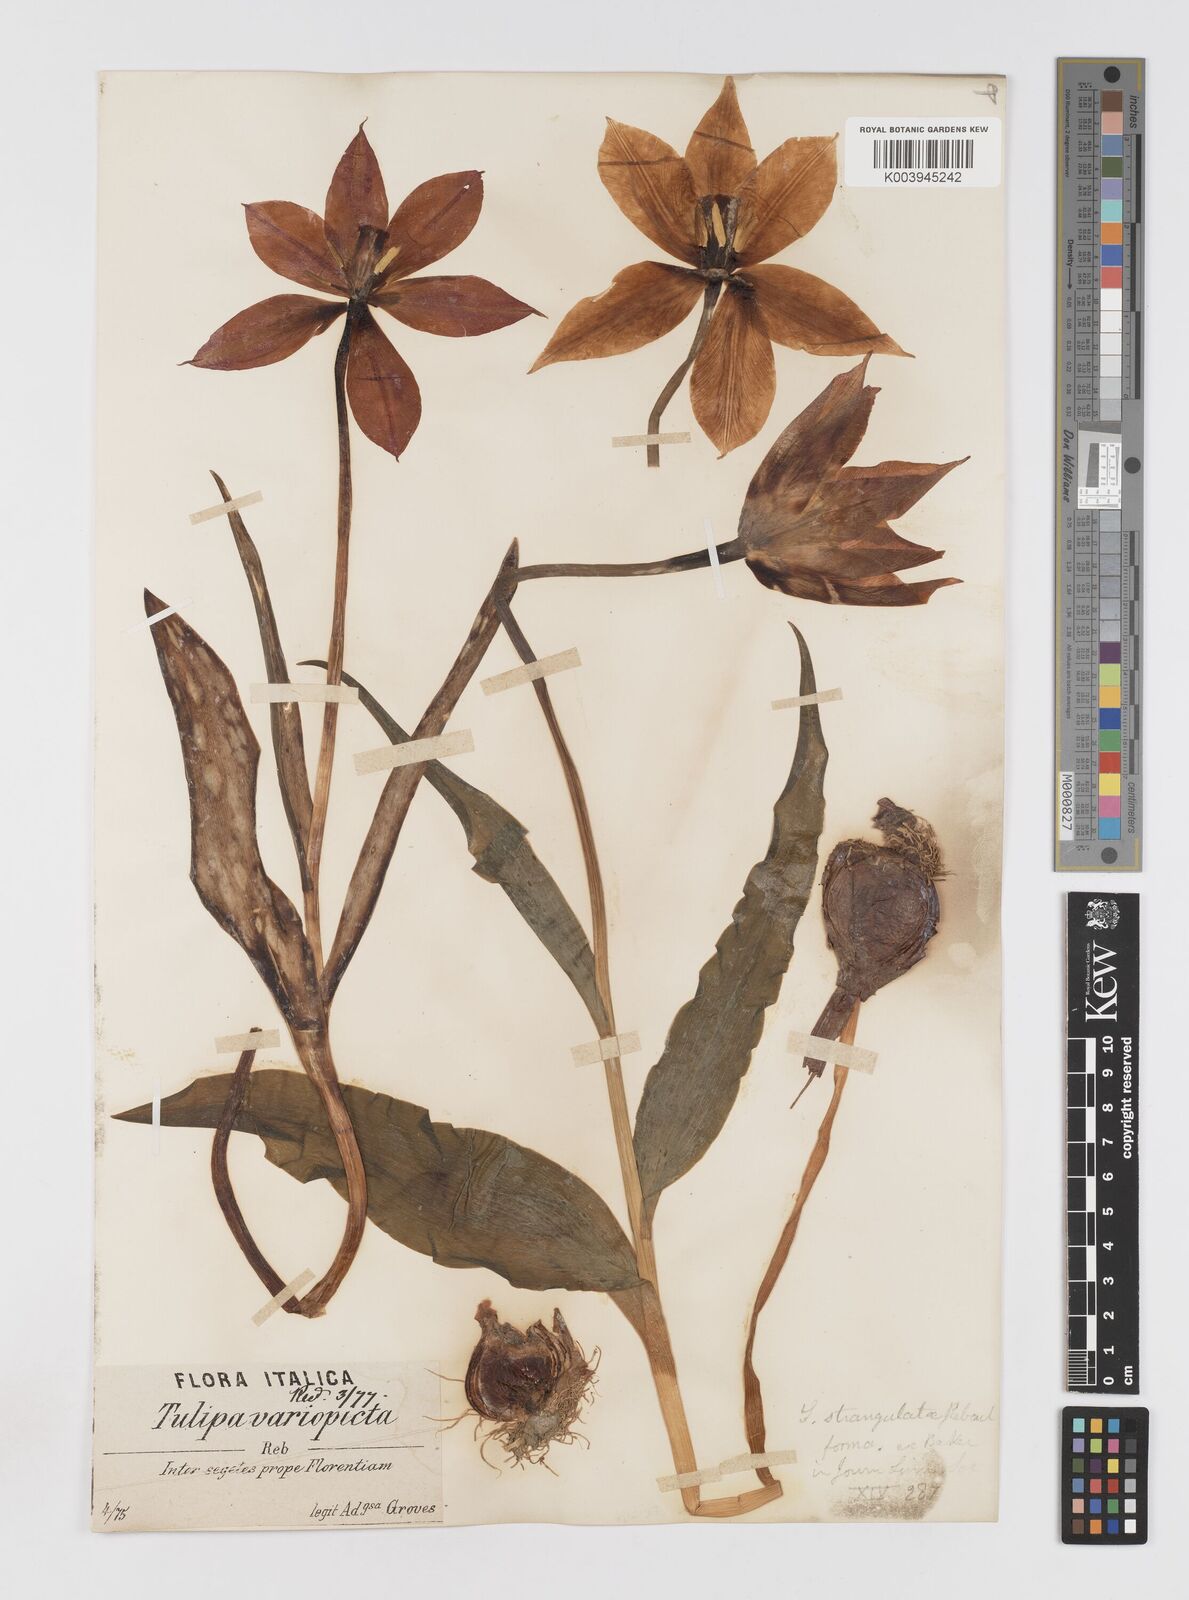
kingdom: Plantae
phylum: Tracheophyta
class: Liliopsida
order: Liliales
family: Liliaceae
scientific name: Liliaceae
